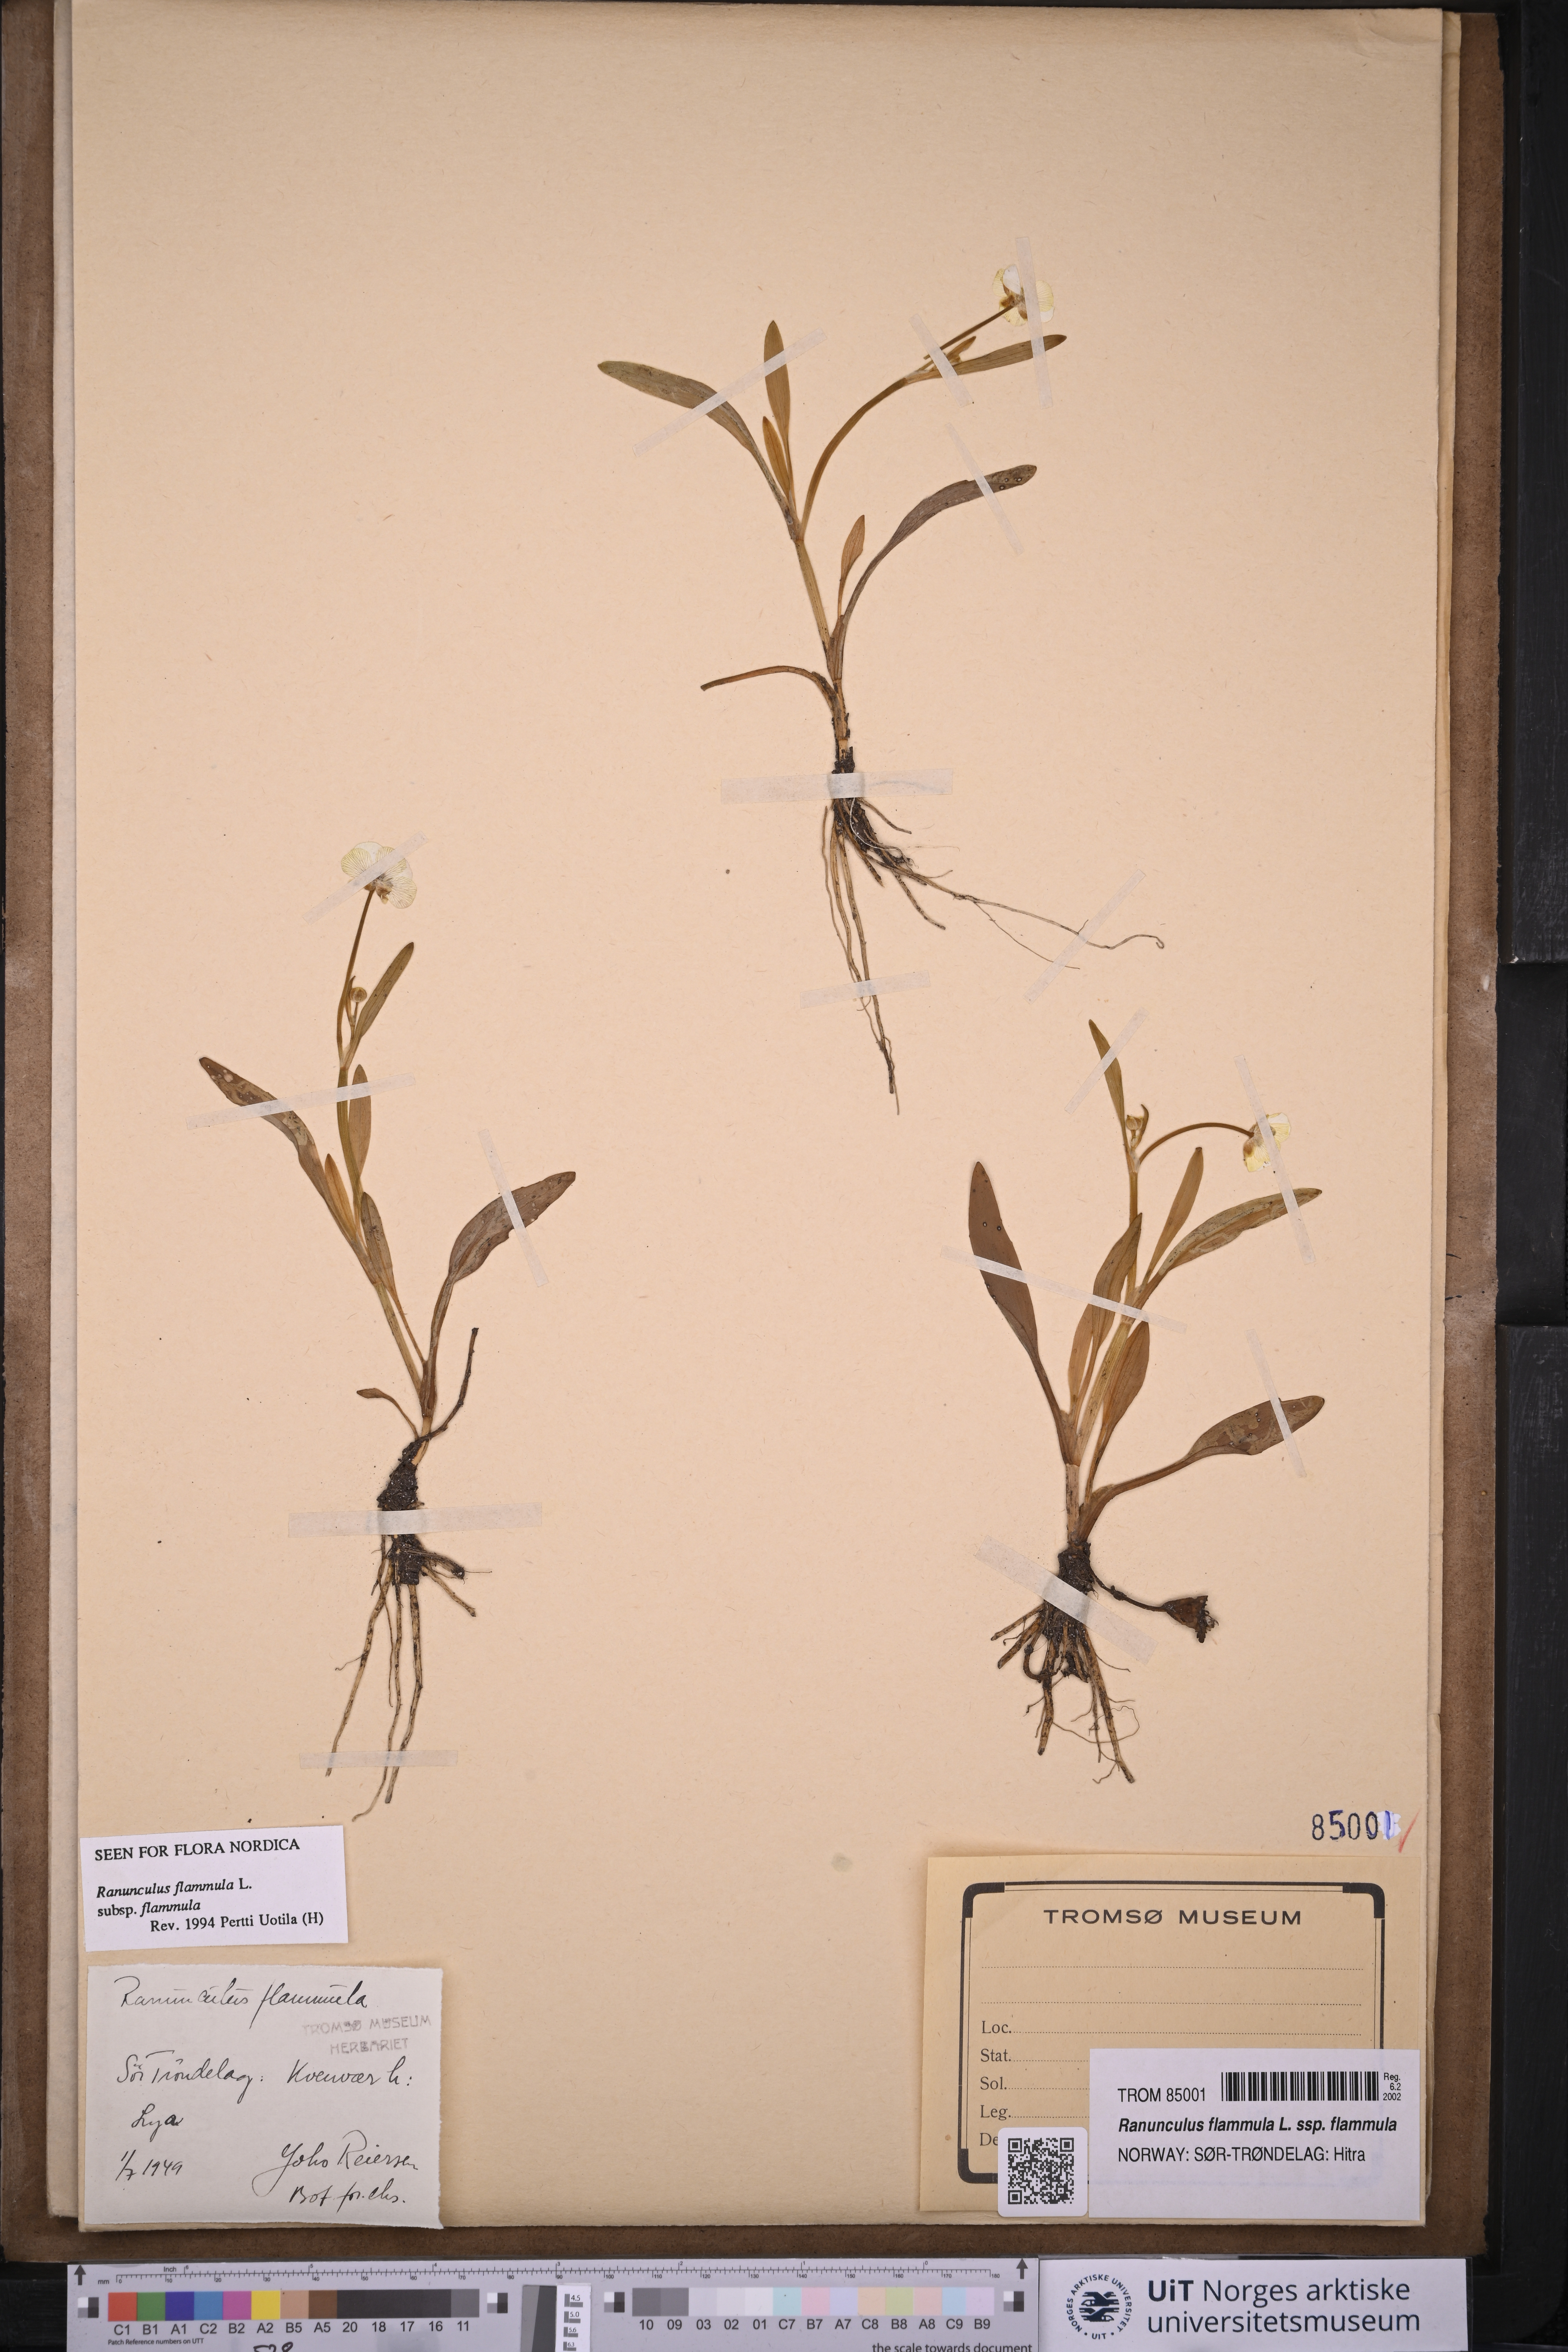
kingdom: Plantae
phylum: Tracheophyta
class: Magnoliopsida
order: Ranunculales
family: Ranunculaceae
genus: Ranunculus
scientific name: Ranunculus flammula
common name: Lesser spearwort
